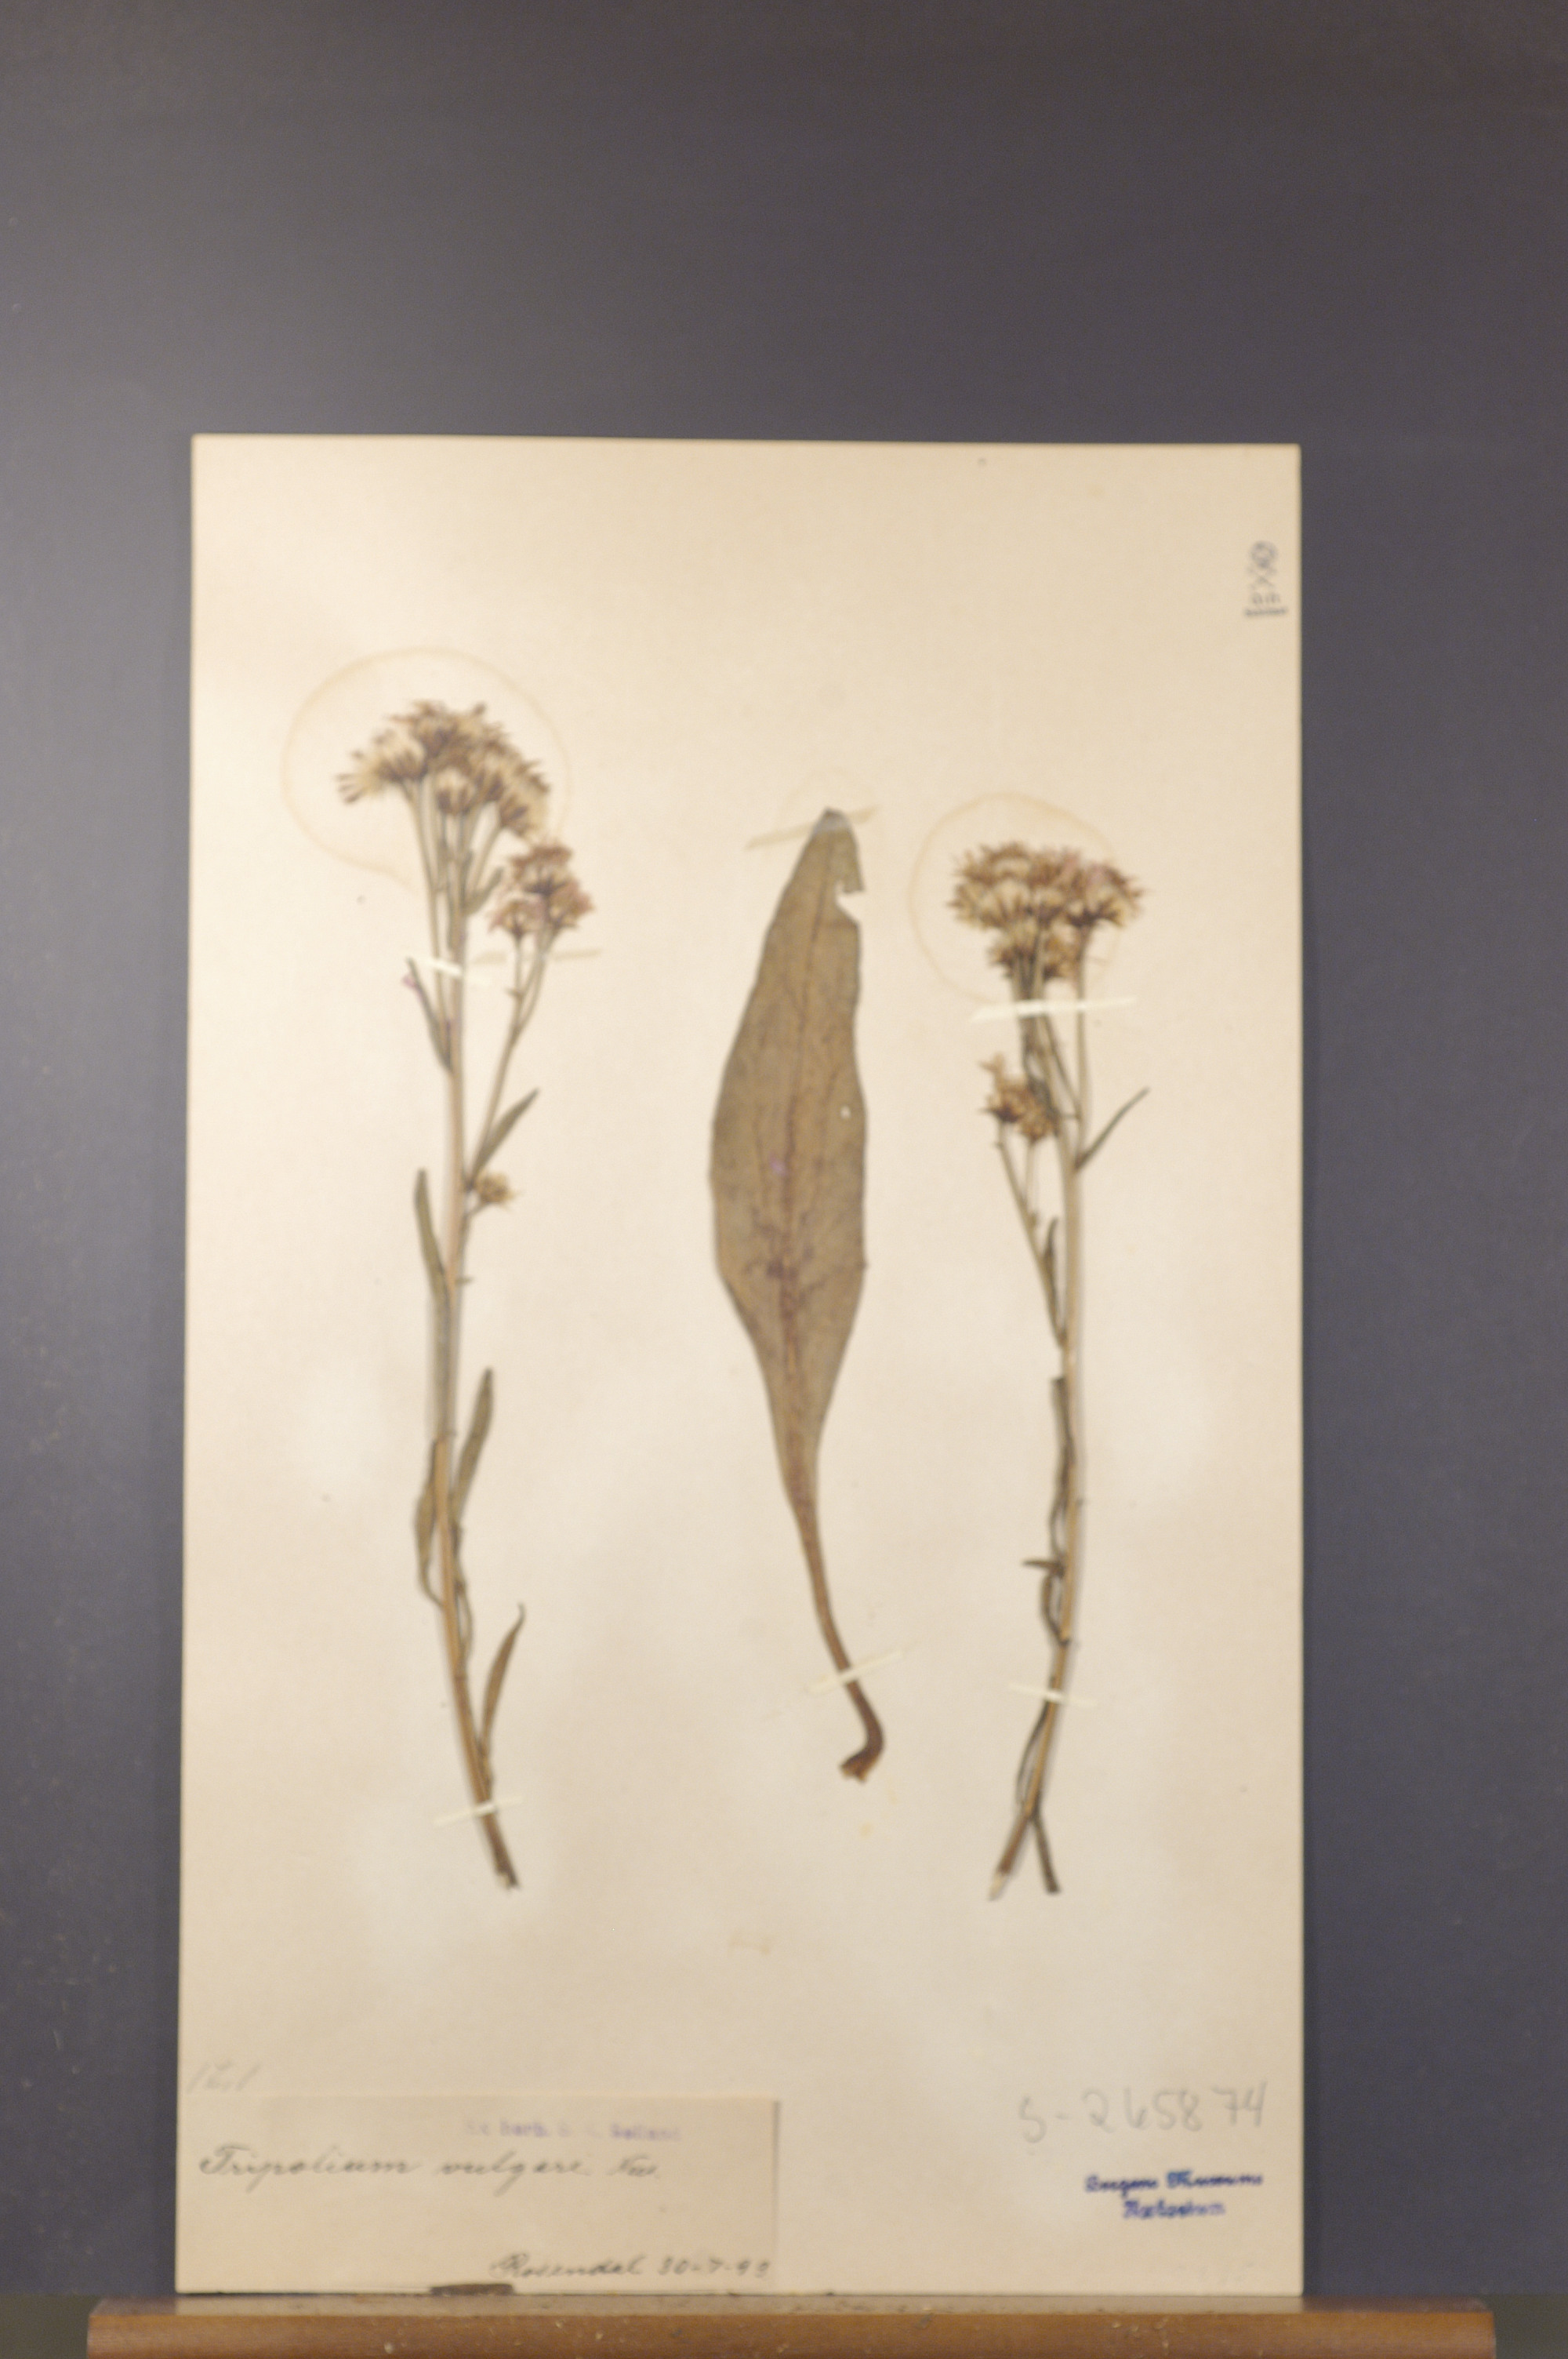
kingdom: Plantae
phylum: Tracheophyta
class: Magnoliopsida
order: Asterales
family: Asteraceae
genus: Tripolium
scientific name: Tripolium pannonicum
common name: Sea aster
